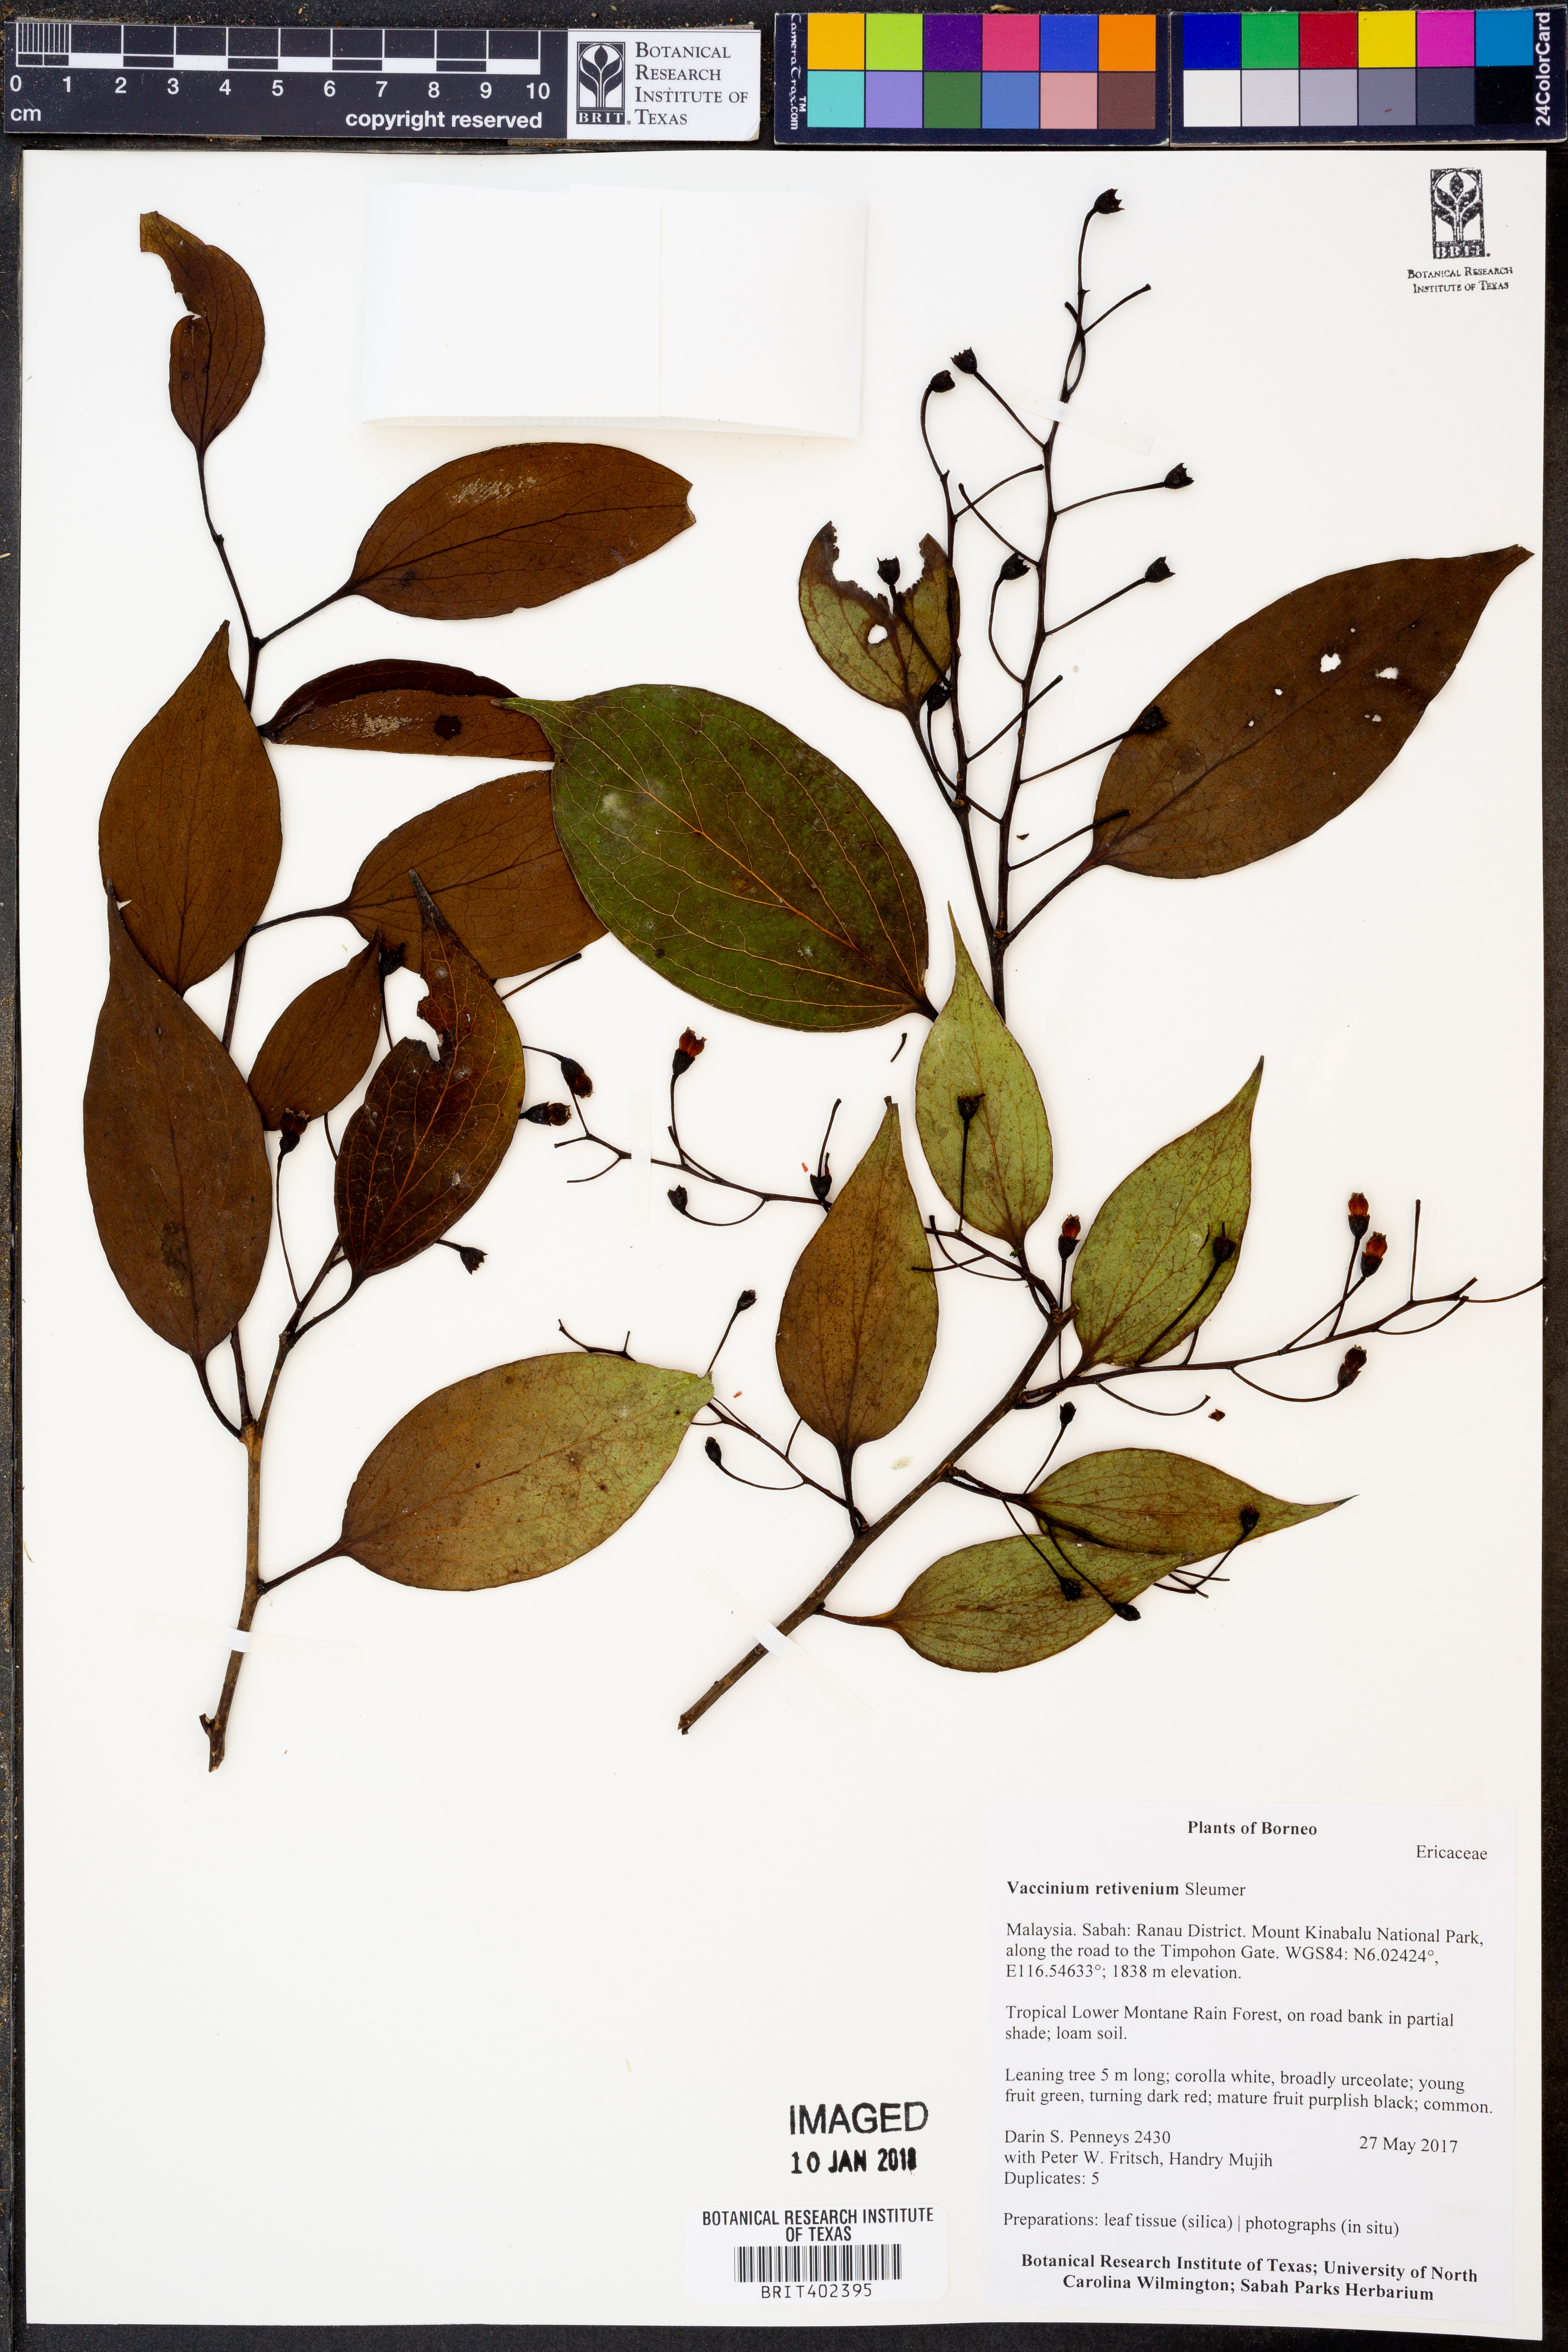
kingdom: Plantae
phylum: Tracheophyta
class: Magnoliopsida
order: Ericales
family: Ericaceae
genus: Vaccinium
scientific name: Vaccinium retivenium
